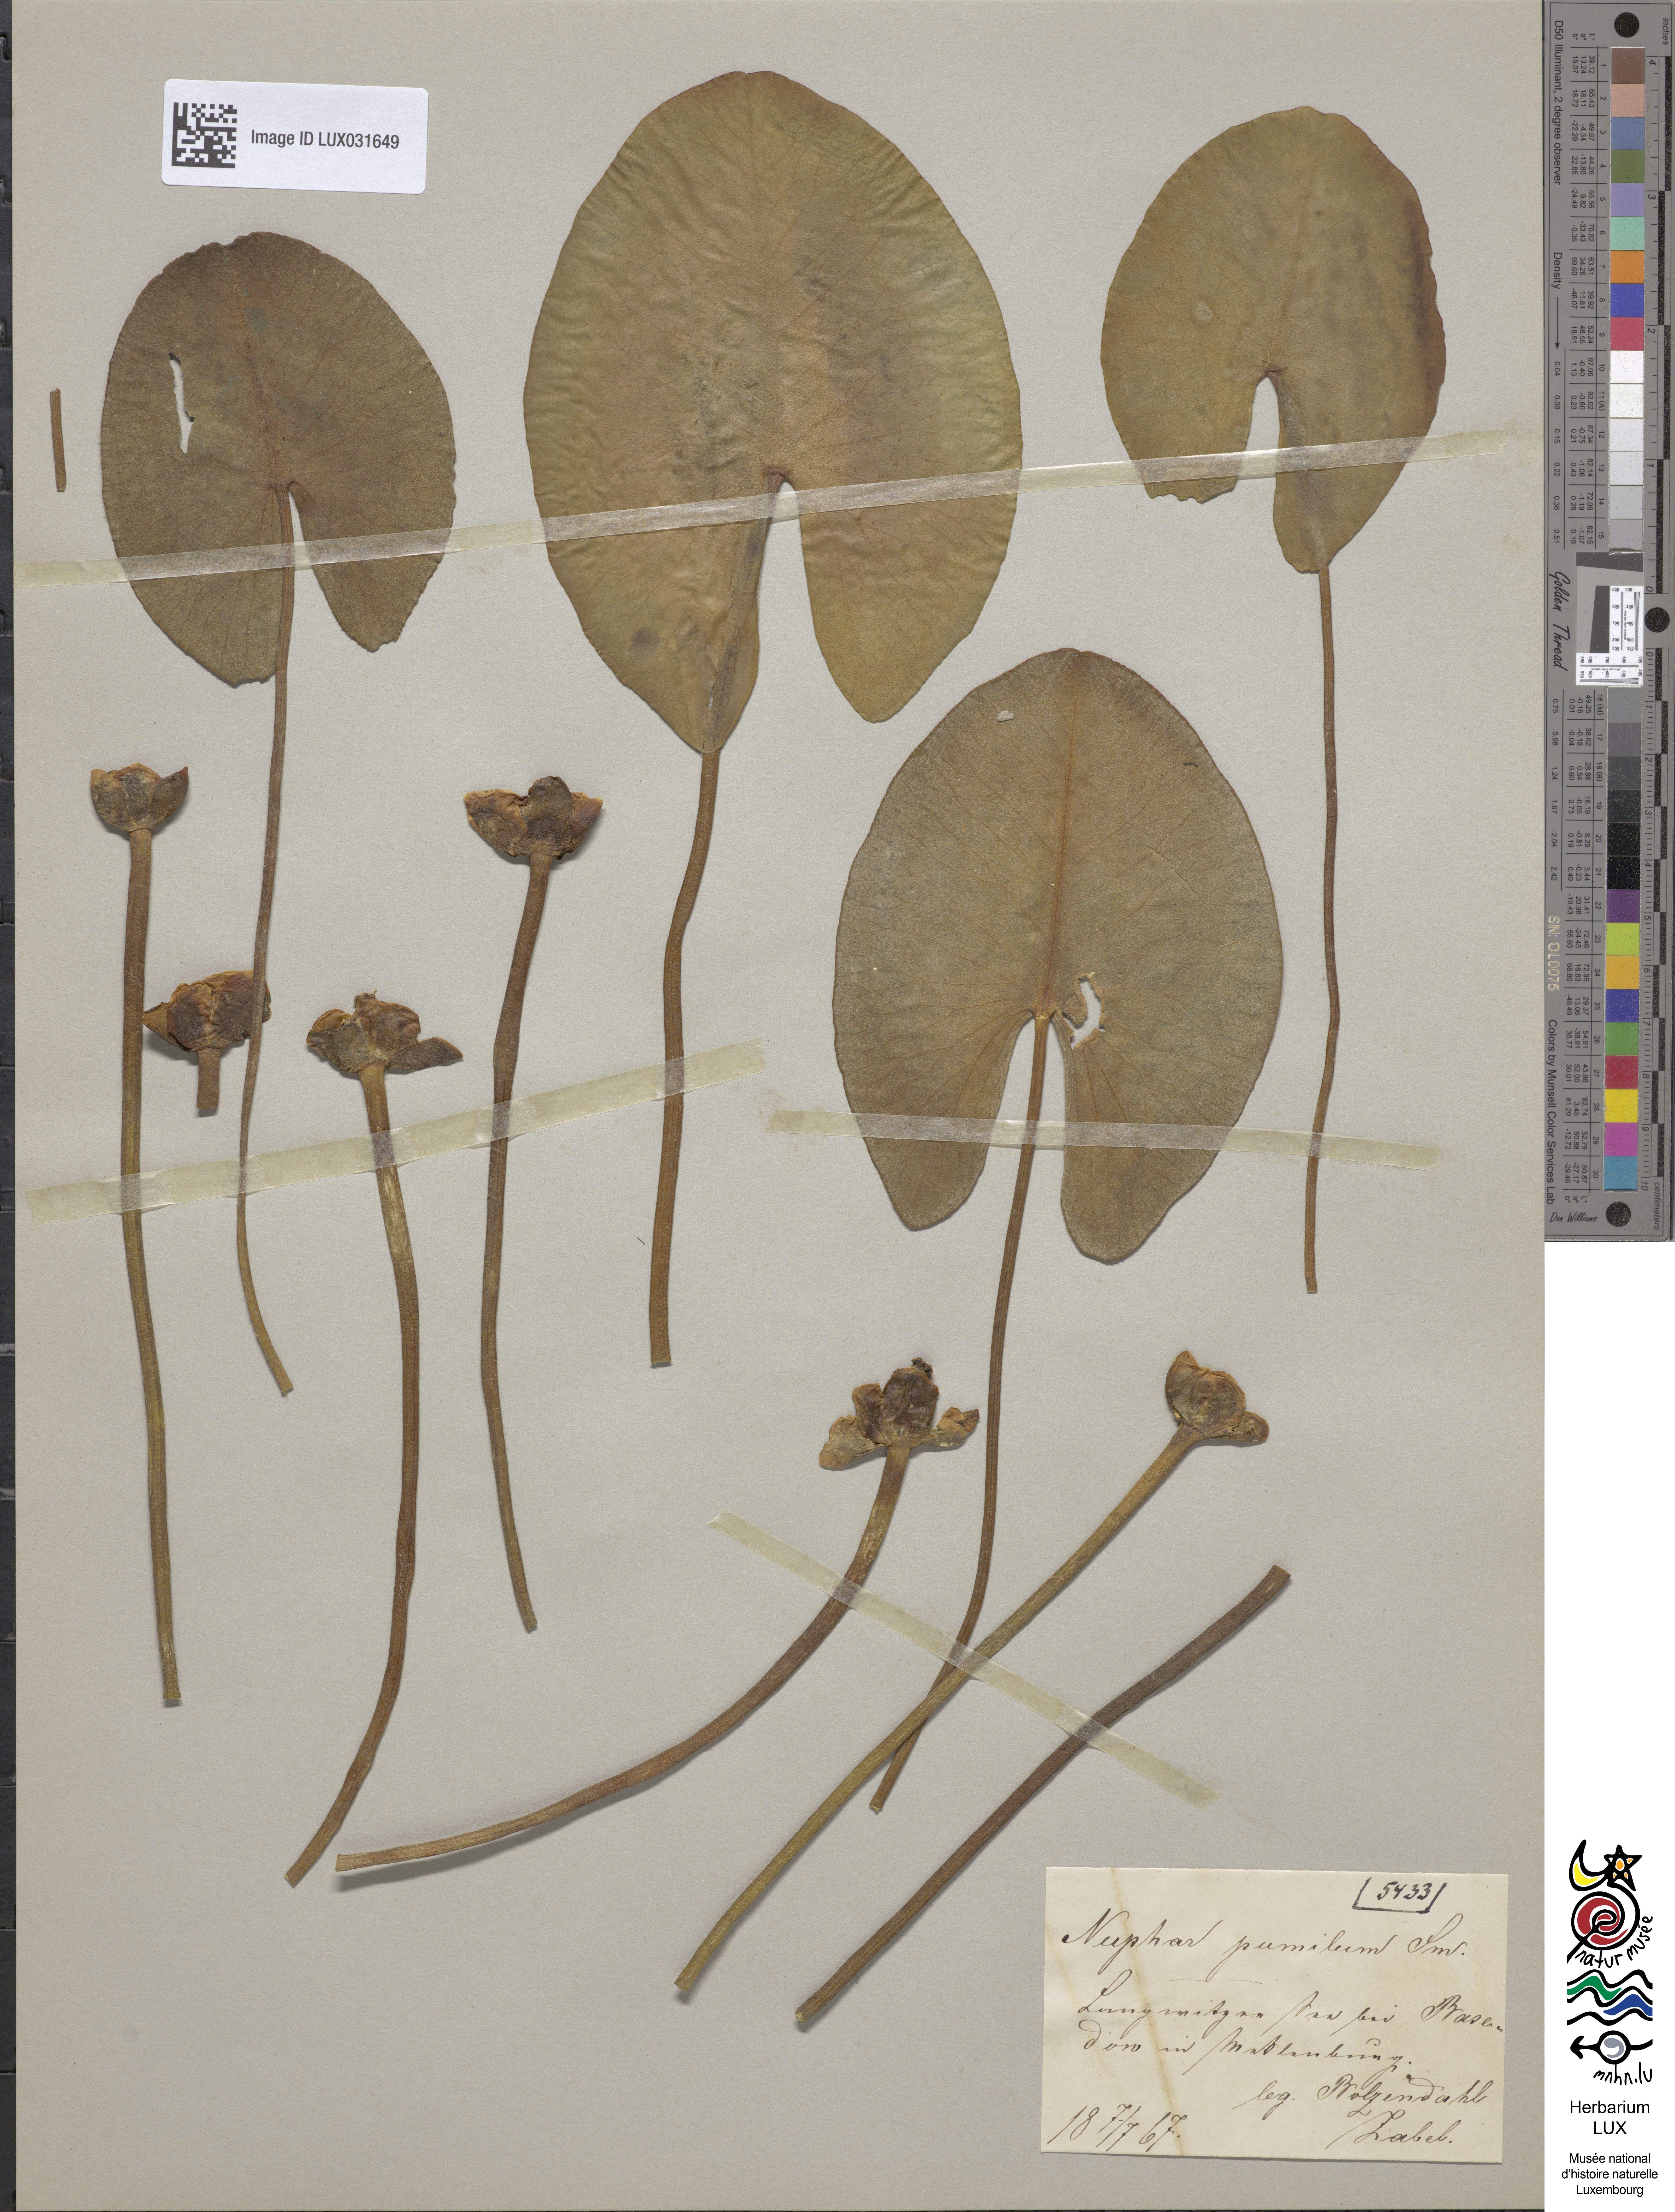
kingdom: Plantae
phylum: Tracheophyta
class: Magnoliopsida
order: Nymphaeales
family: Nymphaeaceae
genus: Nuphar
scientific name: Nuphar pumila
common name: Least water-lily
